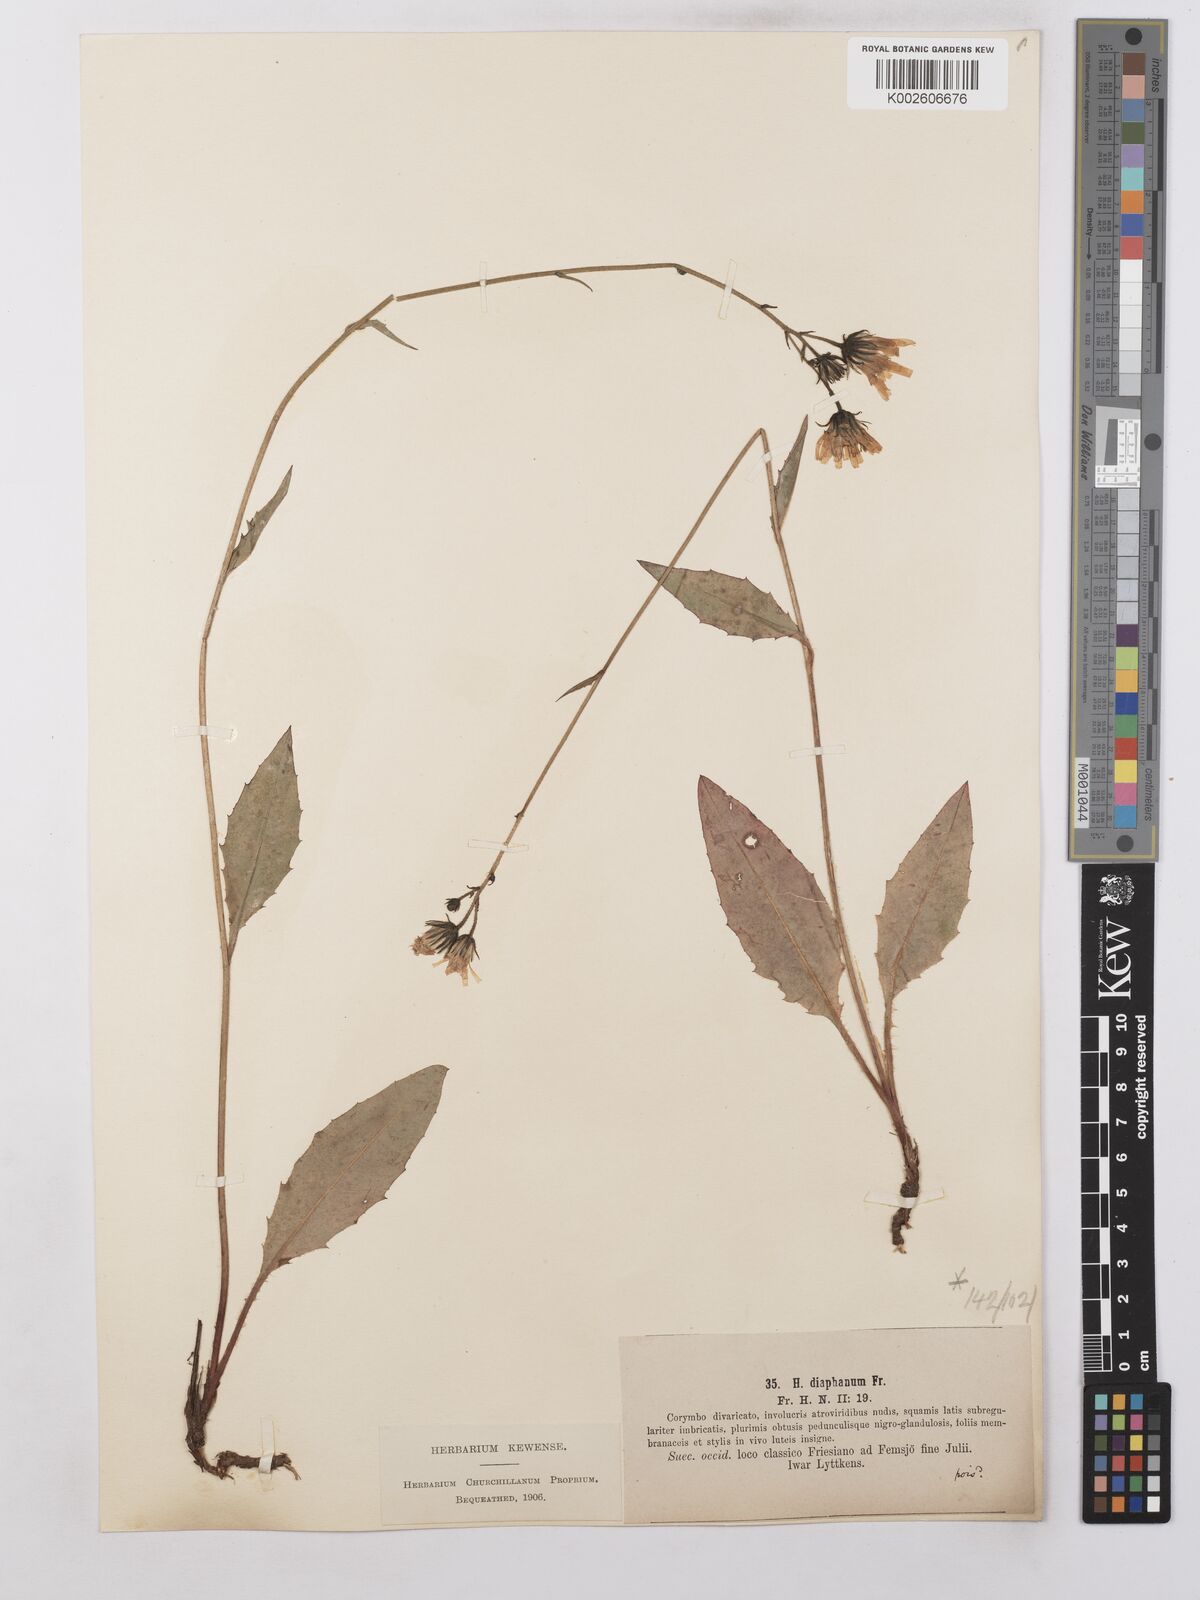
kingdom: Plantae
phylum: Tracheophyta
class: Magnoliopsida
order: Asterales
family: Asteraceae
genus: Hieracium
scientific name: Hieracium lachenalii
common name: Common hawkweed
